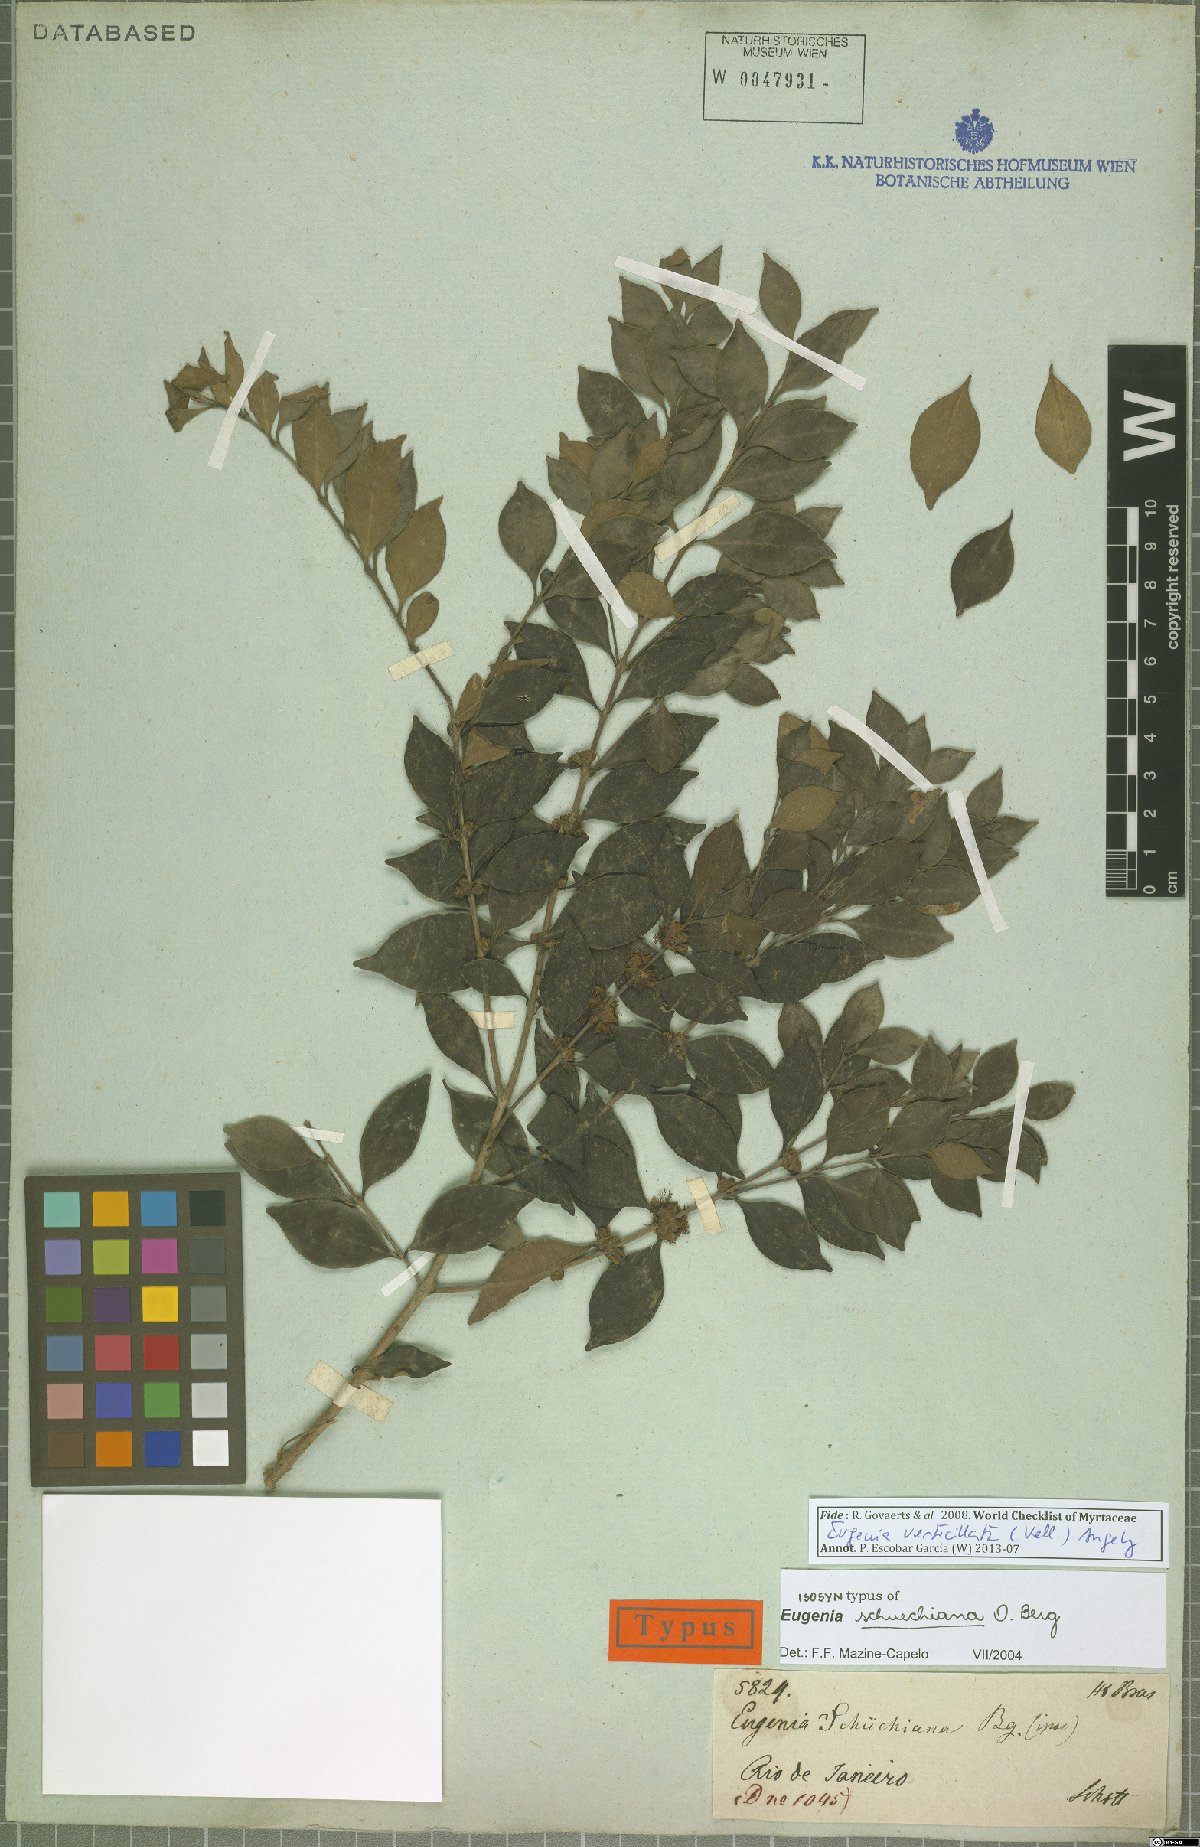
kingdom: Plantae
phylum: Tracheophyta
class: Magnoliopsida
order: Myrtales
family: Myrtaceae
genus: Eugenia
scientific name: Eugenia verticillata
